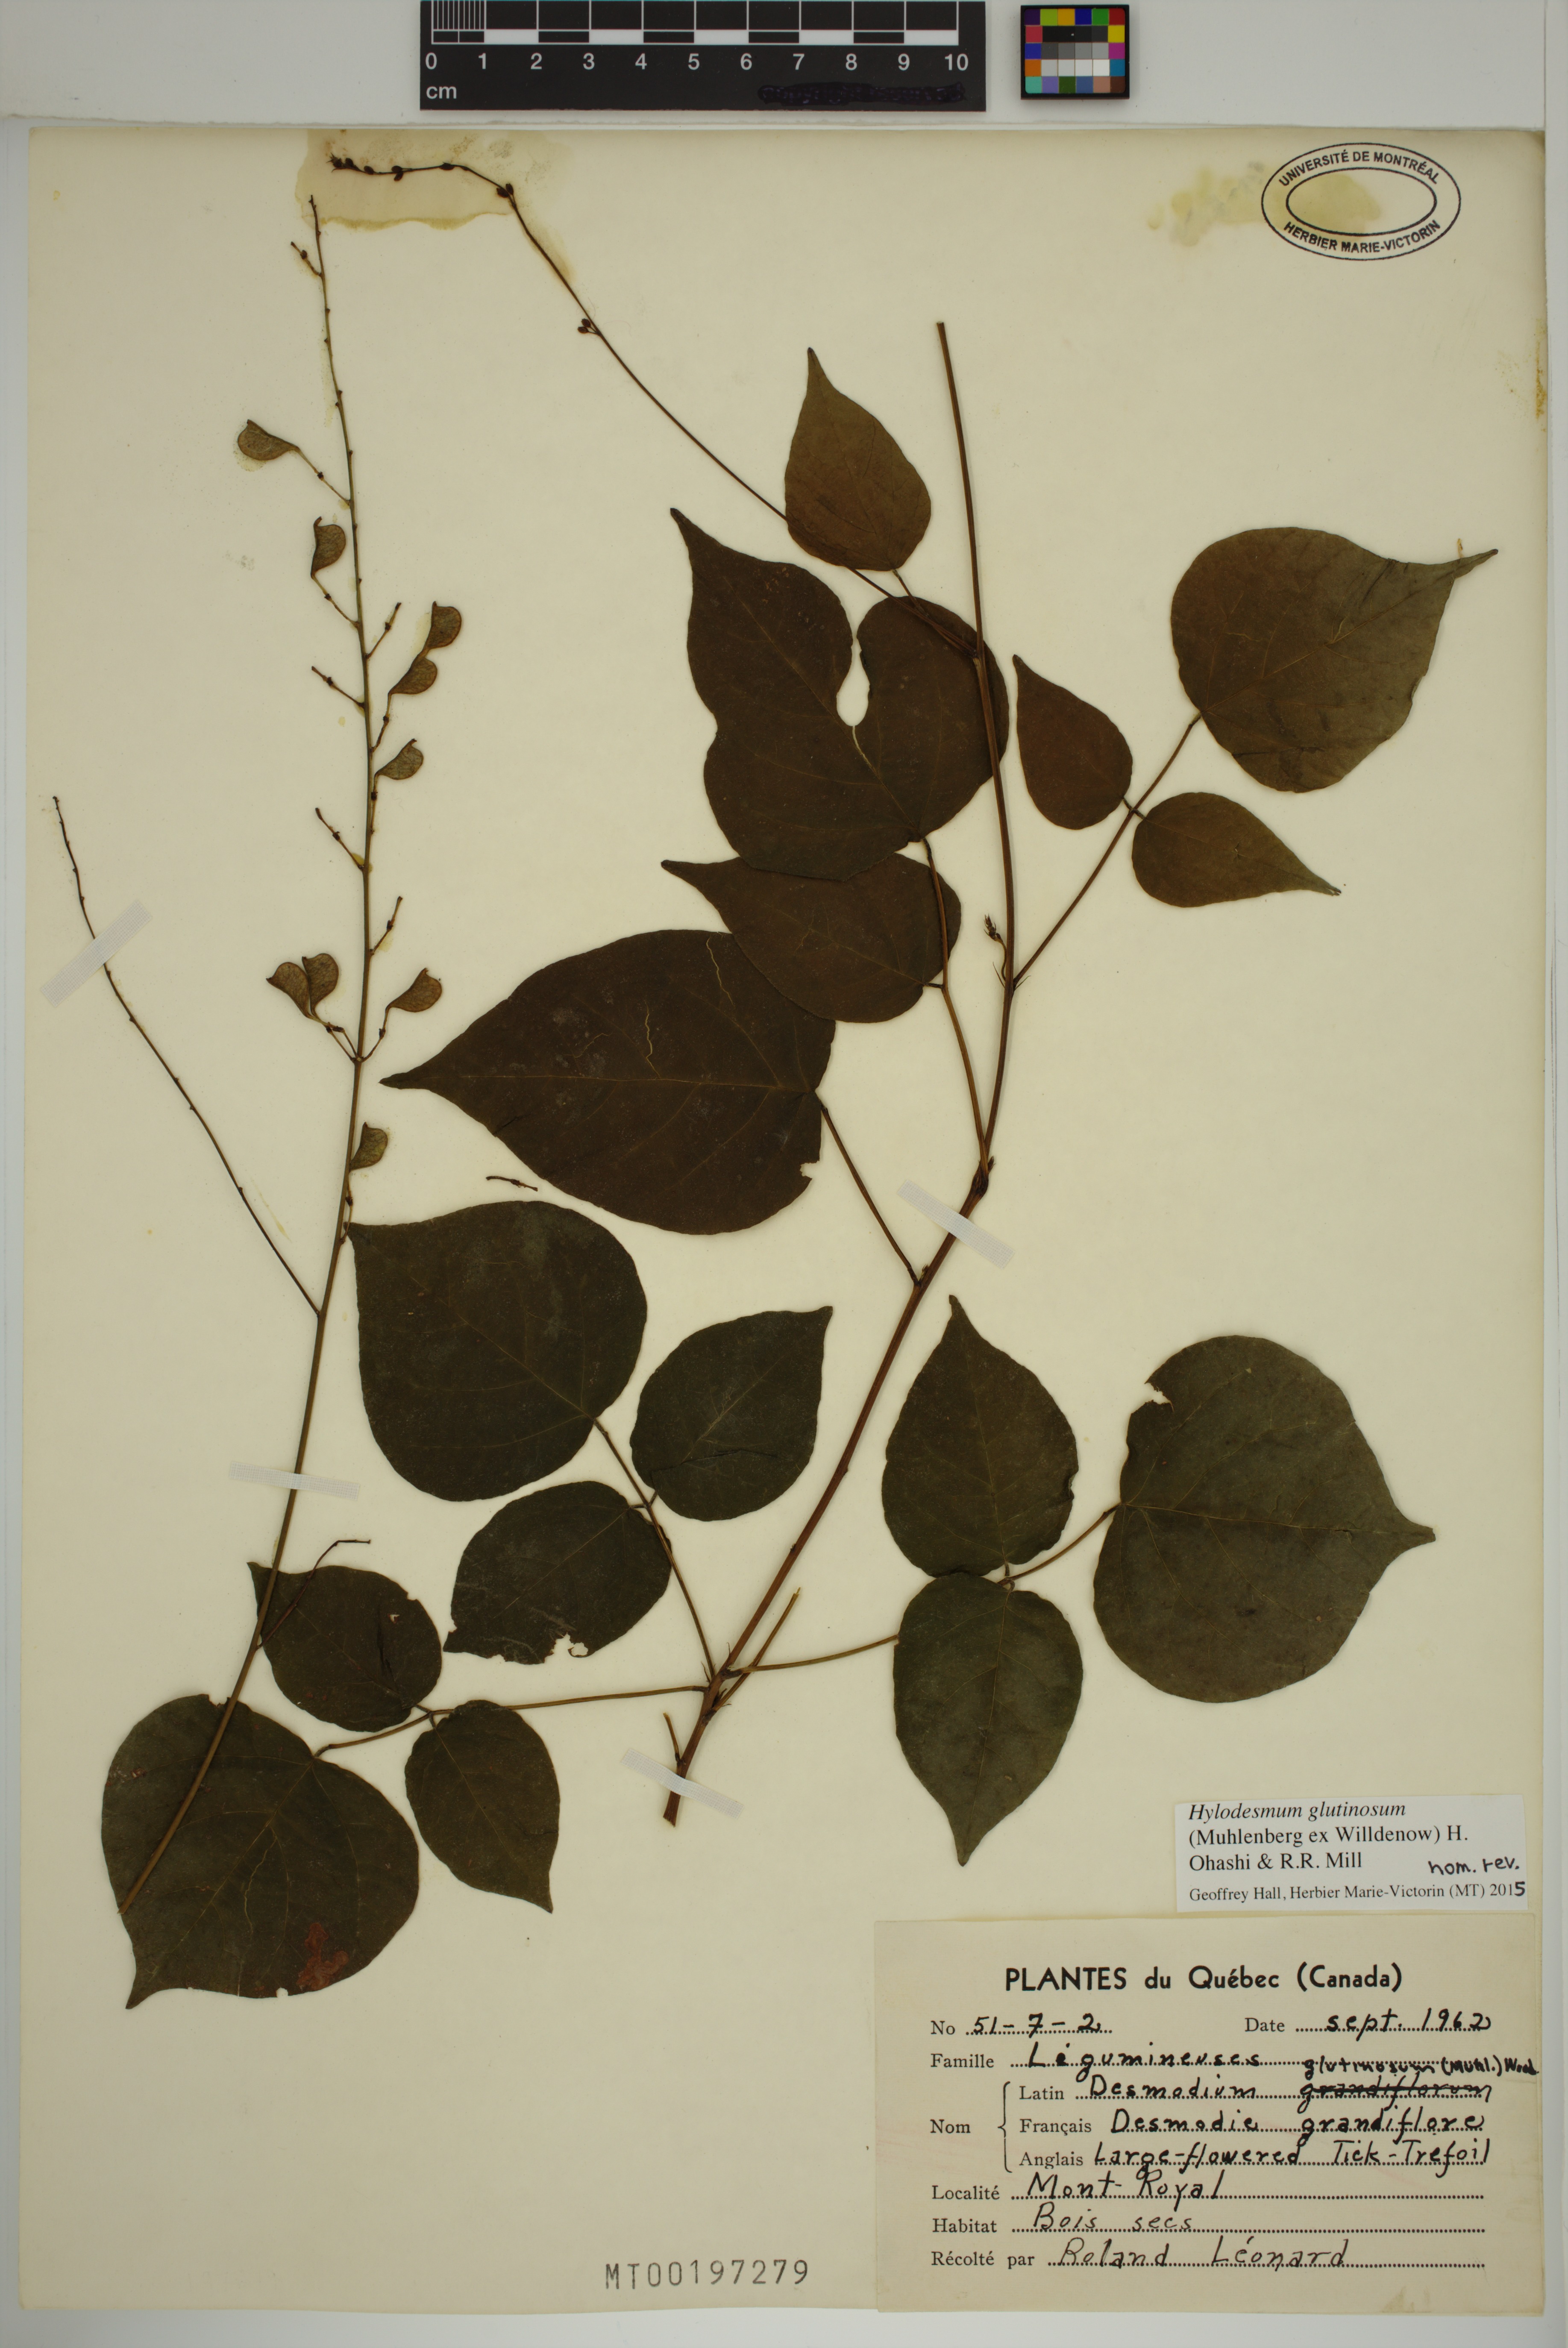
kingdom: Plantae
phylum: Tracheophyta
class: Magnoliopsida
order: Fabales
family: Fabaceae
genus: Hylodesmum
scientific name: Hylodesmum glutinosum
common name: Clustered-leaved tick-trefoil
